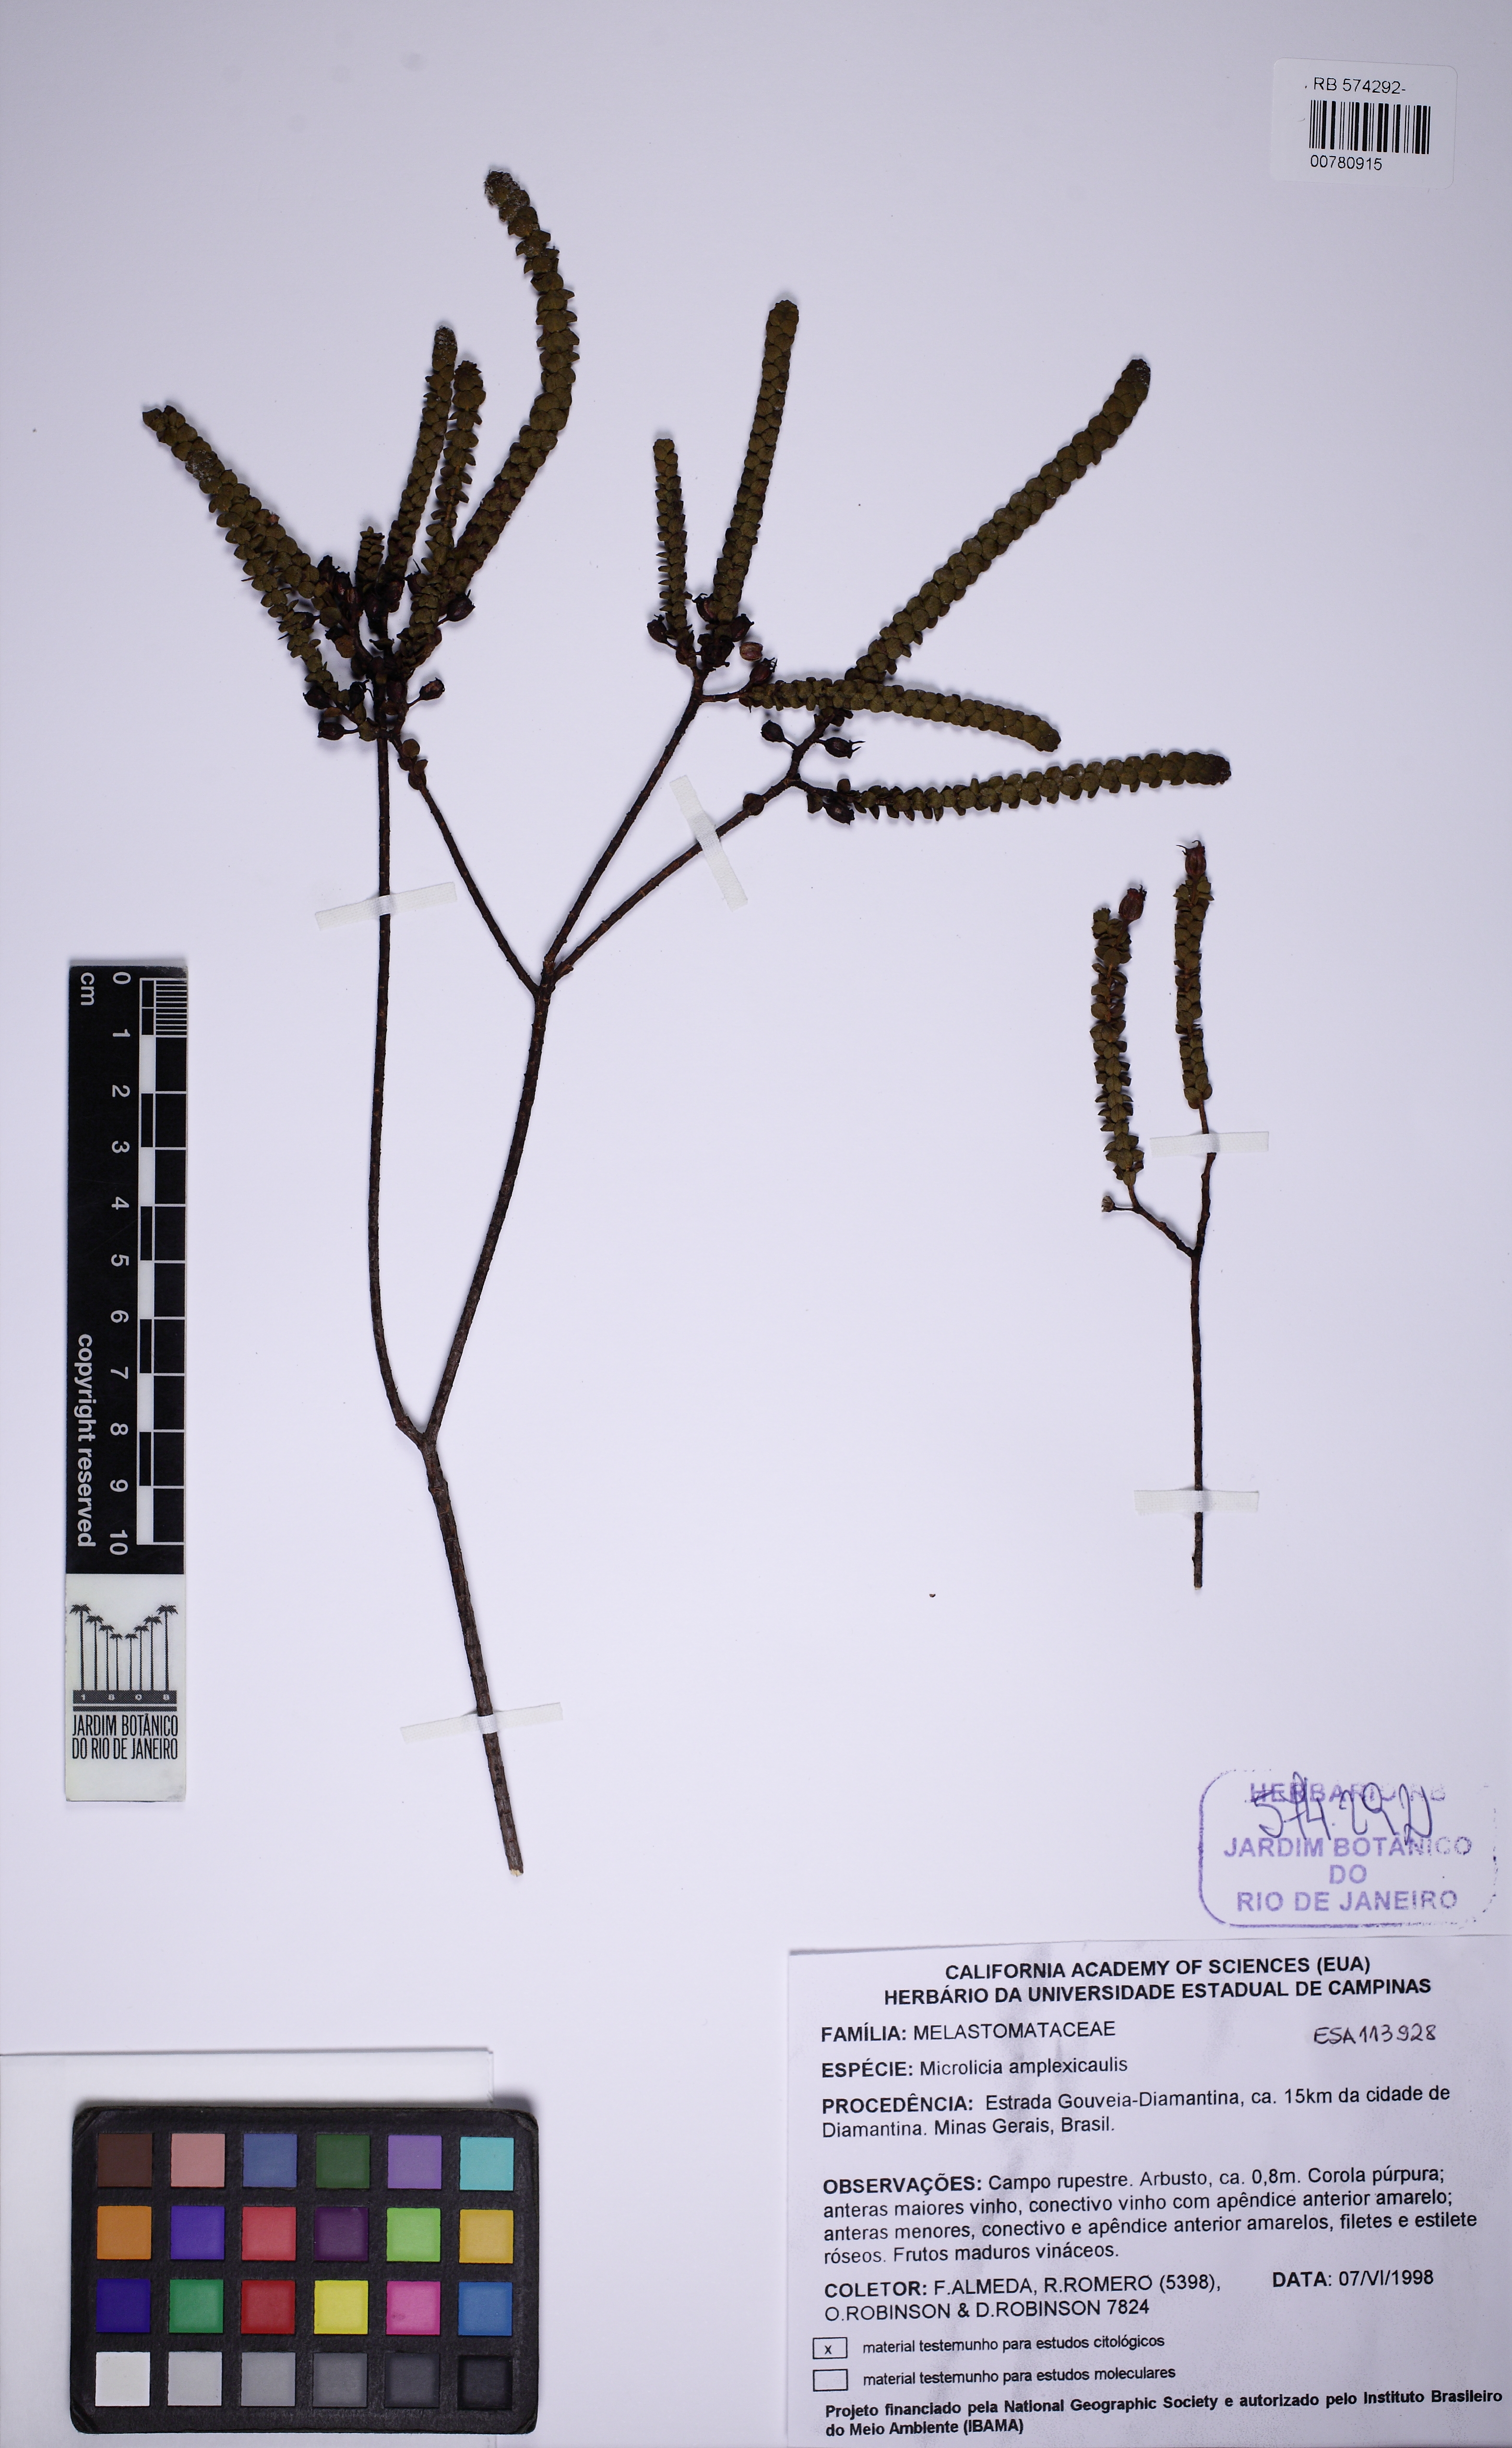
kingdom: Plantae
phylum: Tracheophyta
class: Magnoliopsida
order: Myrtales
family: Melastomataceae
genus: Microlicia
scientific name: Microlicia amplexicaulis
